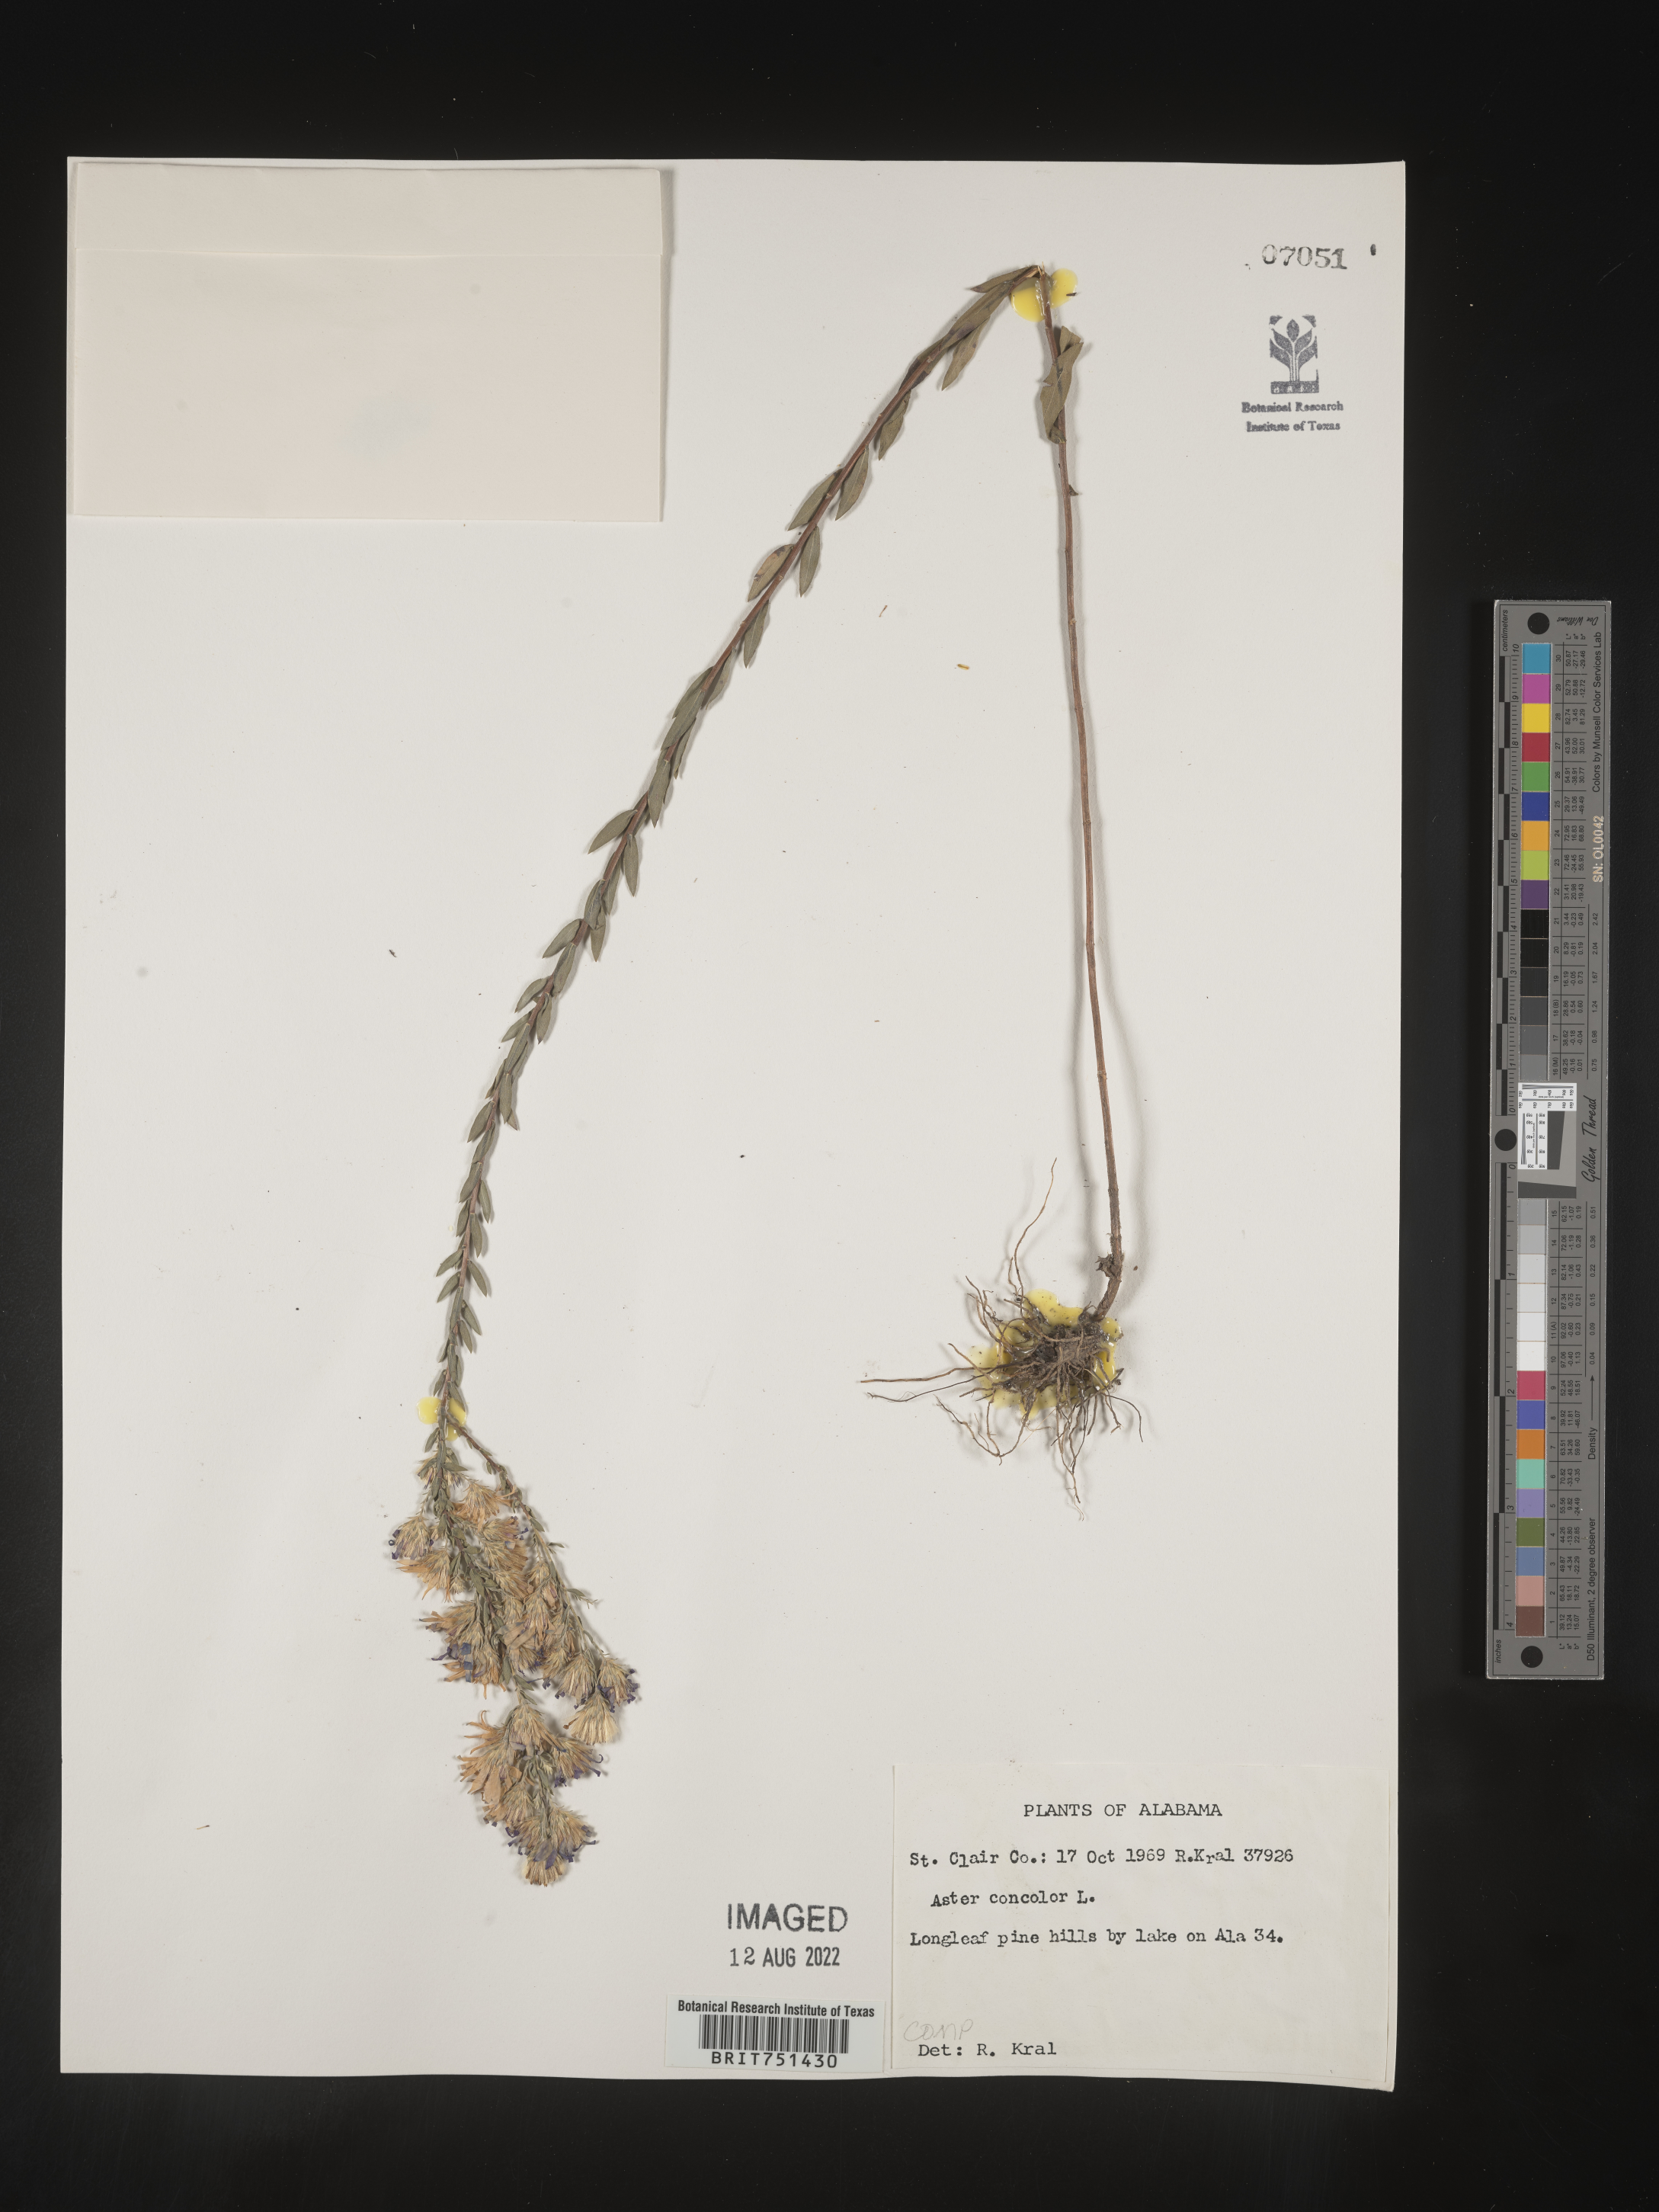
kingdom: Plantae
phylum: Tracheophyta
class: Magnoliopsida
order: Asterales
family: Asteraceae
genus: Symphyotrichum
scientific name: Symphyotrichum concolor
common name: Eastern silver aster
